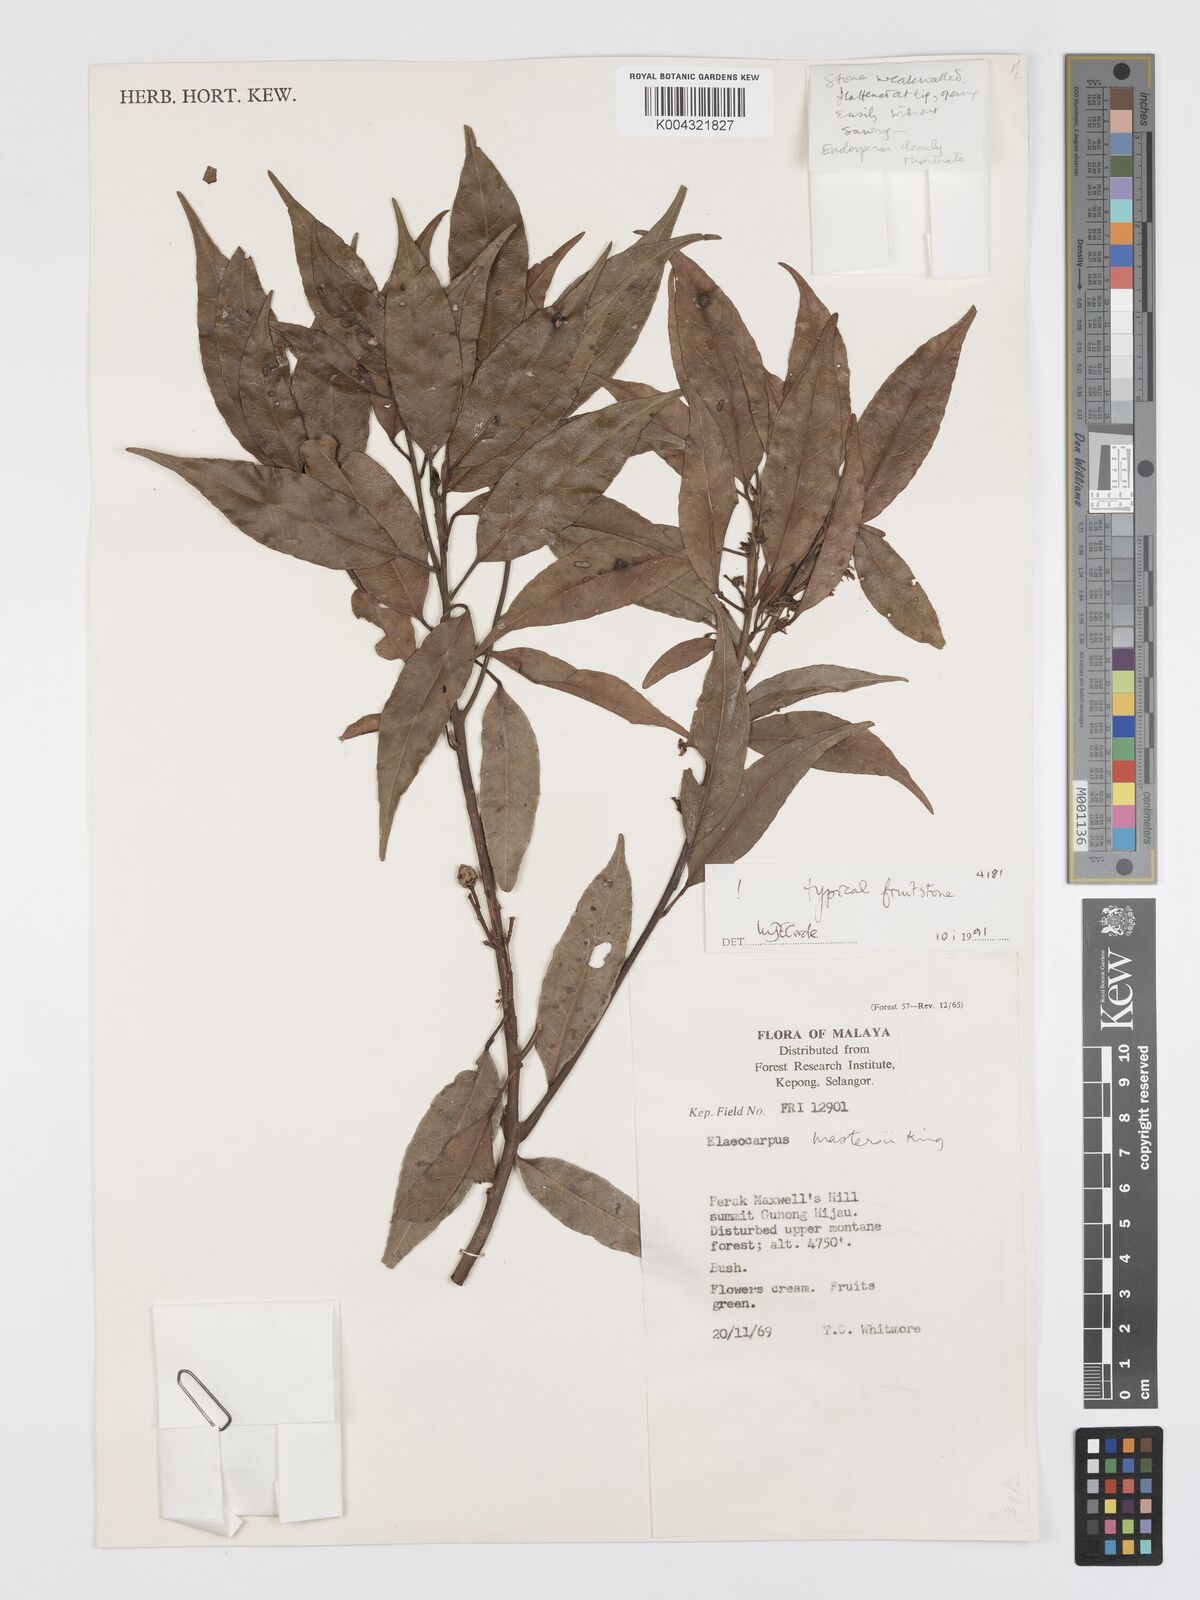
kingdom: Plantae
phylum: Tracheophyta
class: Magnoliopsida
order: Oxalidales
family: Elaeocarpaceae
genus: Elaeocarpus
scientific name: Elaeocarpus mastersii
